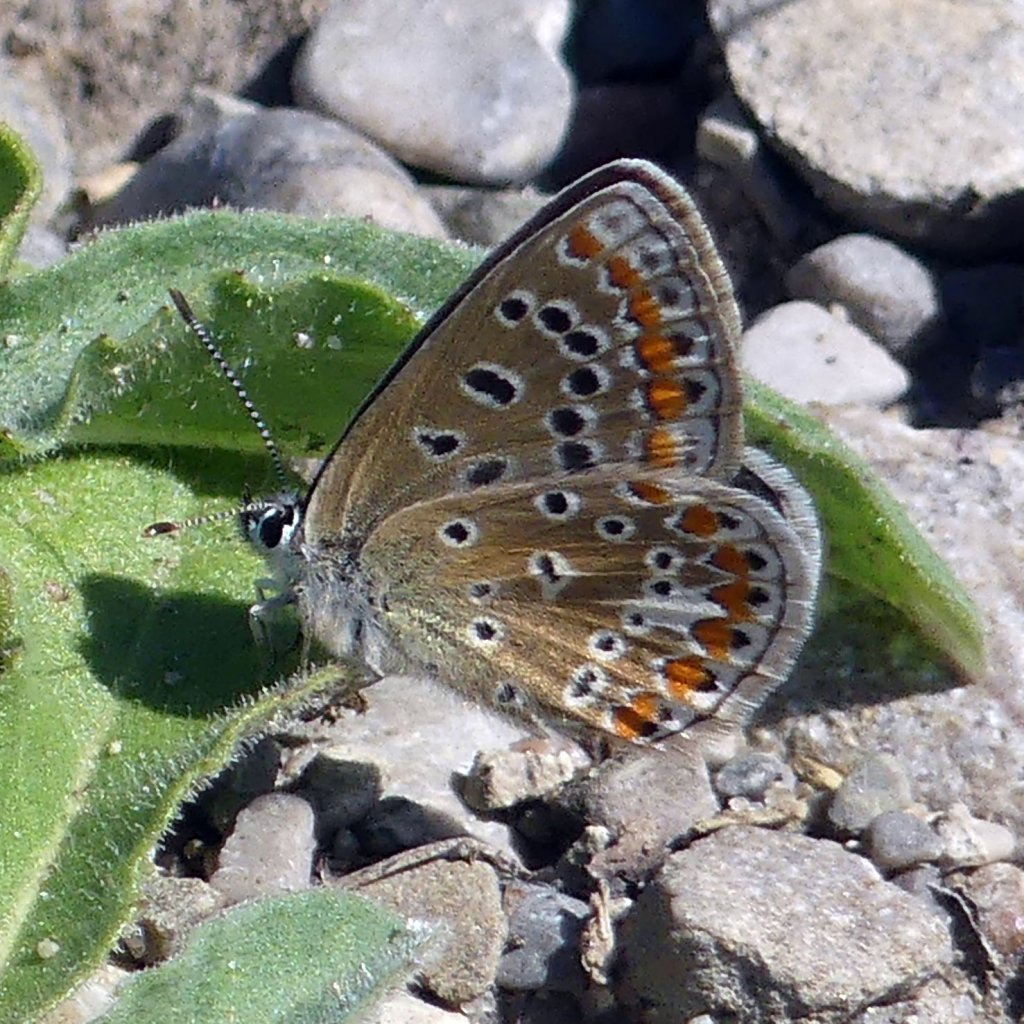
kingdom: Animalia
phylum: Arthropoda
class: Insecta
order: Lepidoptera
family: Lycaenidae
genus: Polyommatus
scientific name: Polyommatus icarus
